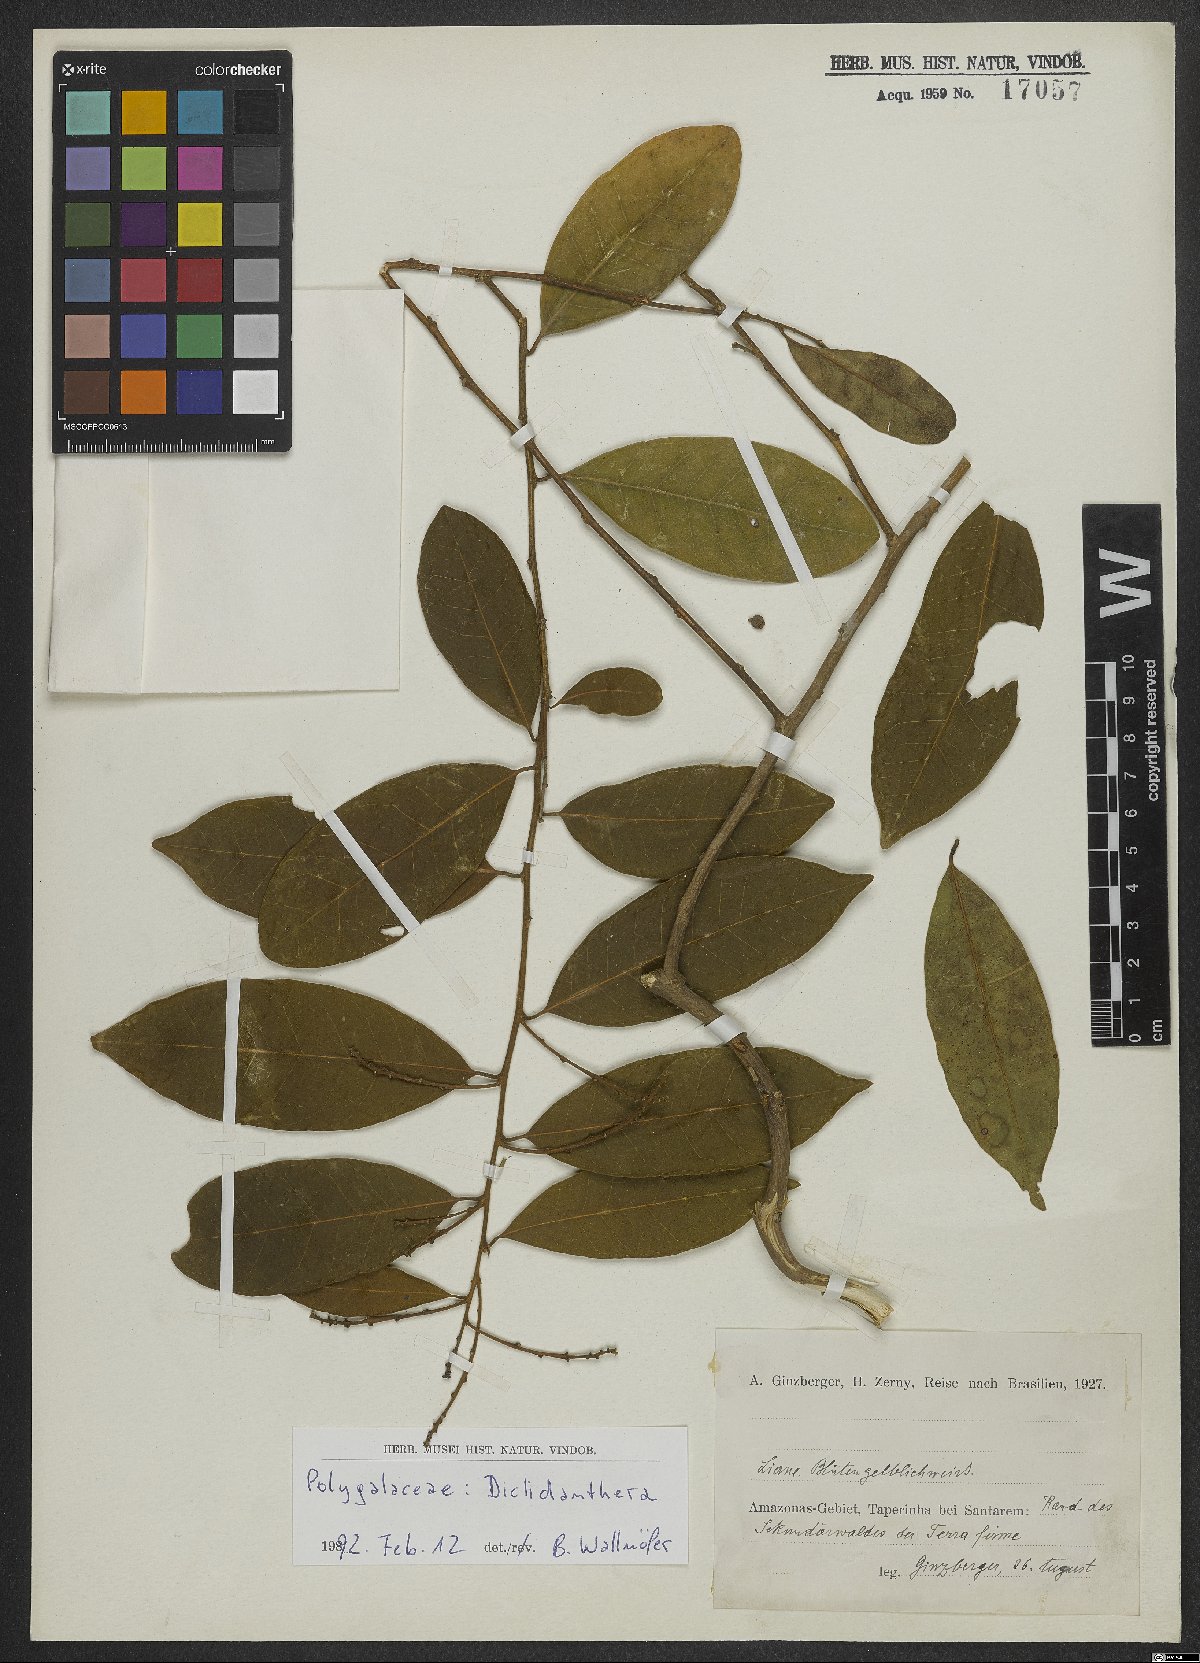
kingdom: Plantae
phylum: Tracheophyta
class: Magnoliopsida
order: Fabales
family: Polygalaceae
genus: Diclidanthera
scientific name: Diclidanthera
